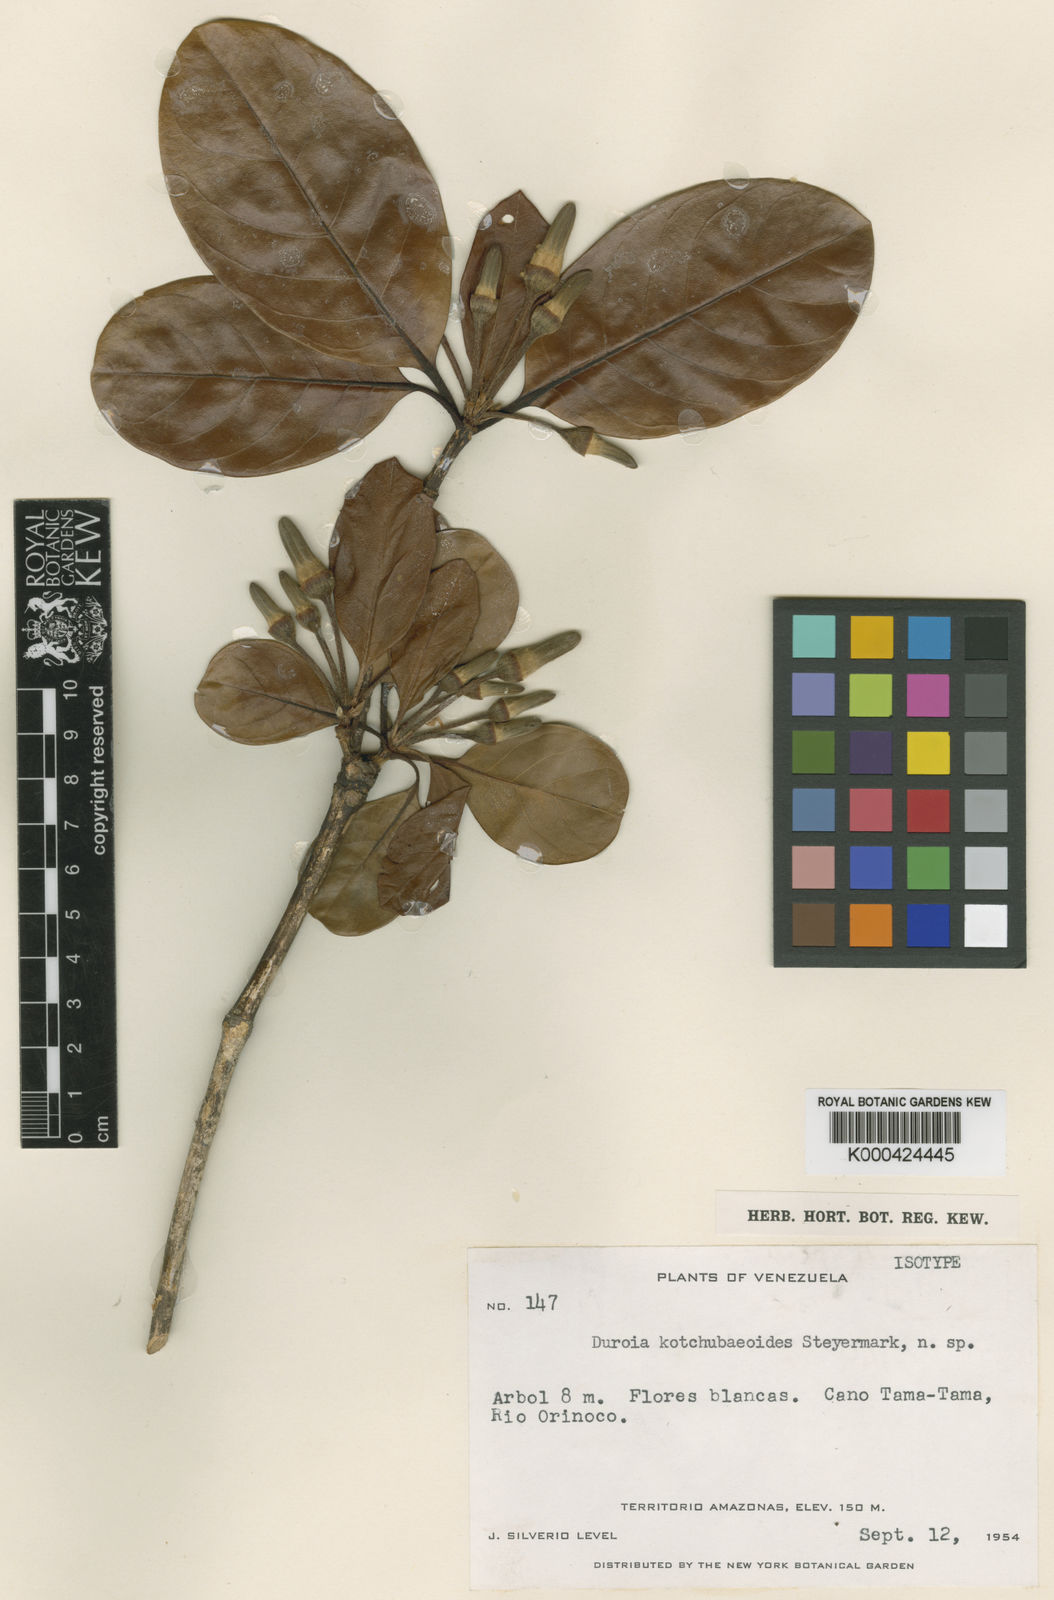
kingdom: Plantae
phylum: Tracheophyta
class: Magnoliopsida
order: Gentianales
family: Rubiaceae
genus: Duroia
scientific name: Duroia
